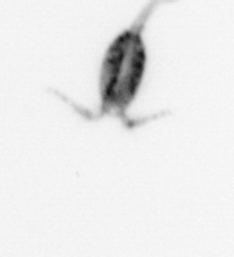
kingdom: Animalia
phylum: Arthropoda
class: Copepoda
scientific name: Copepoda
